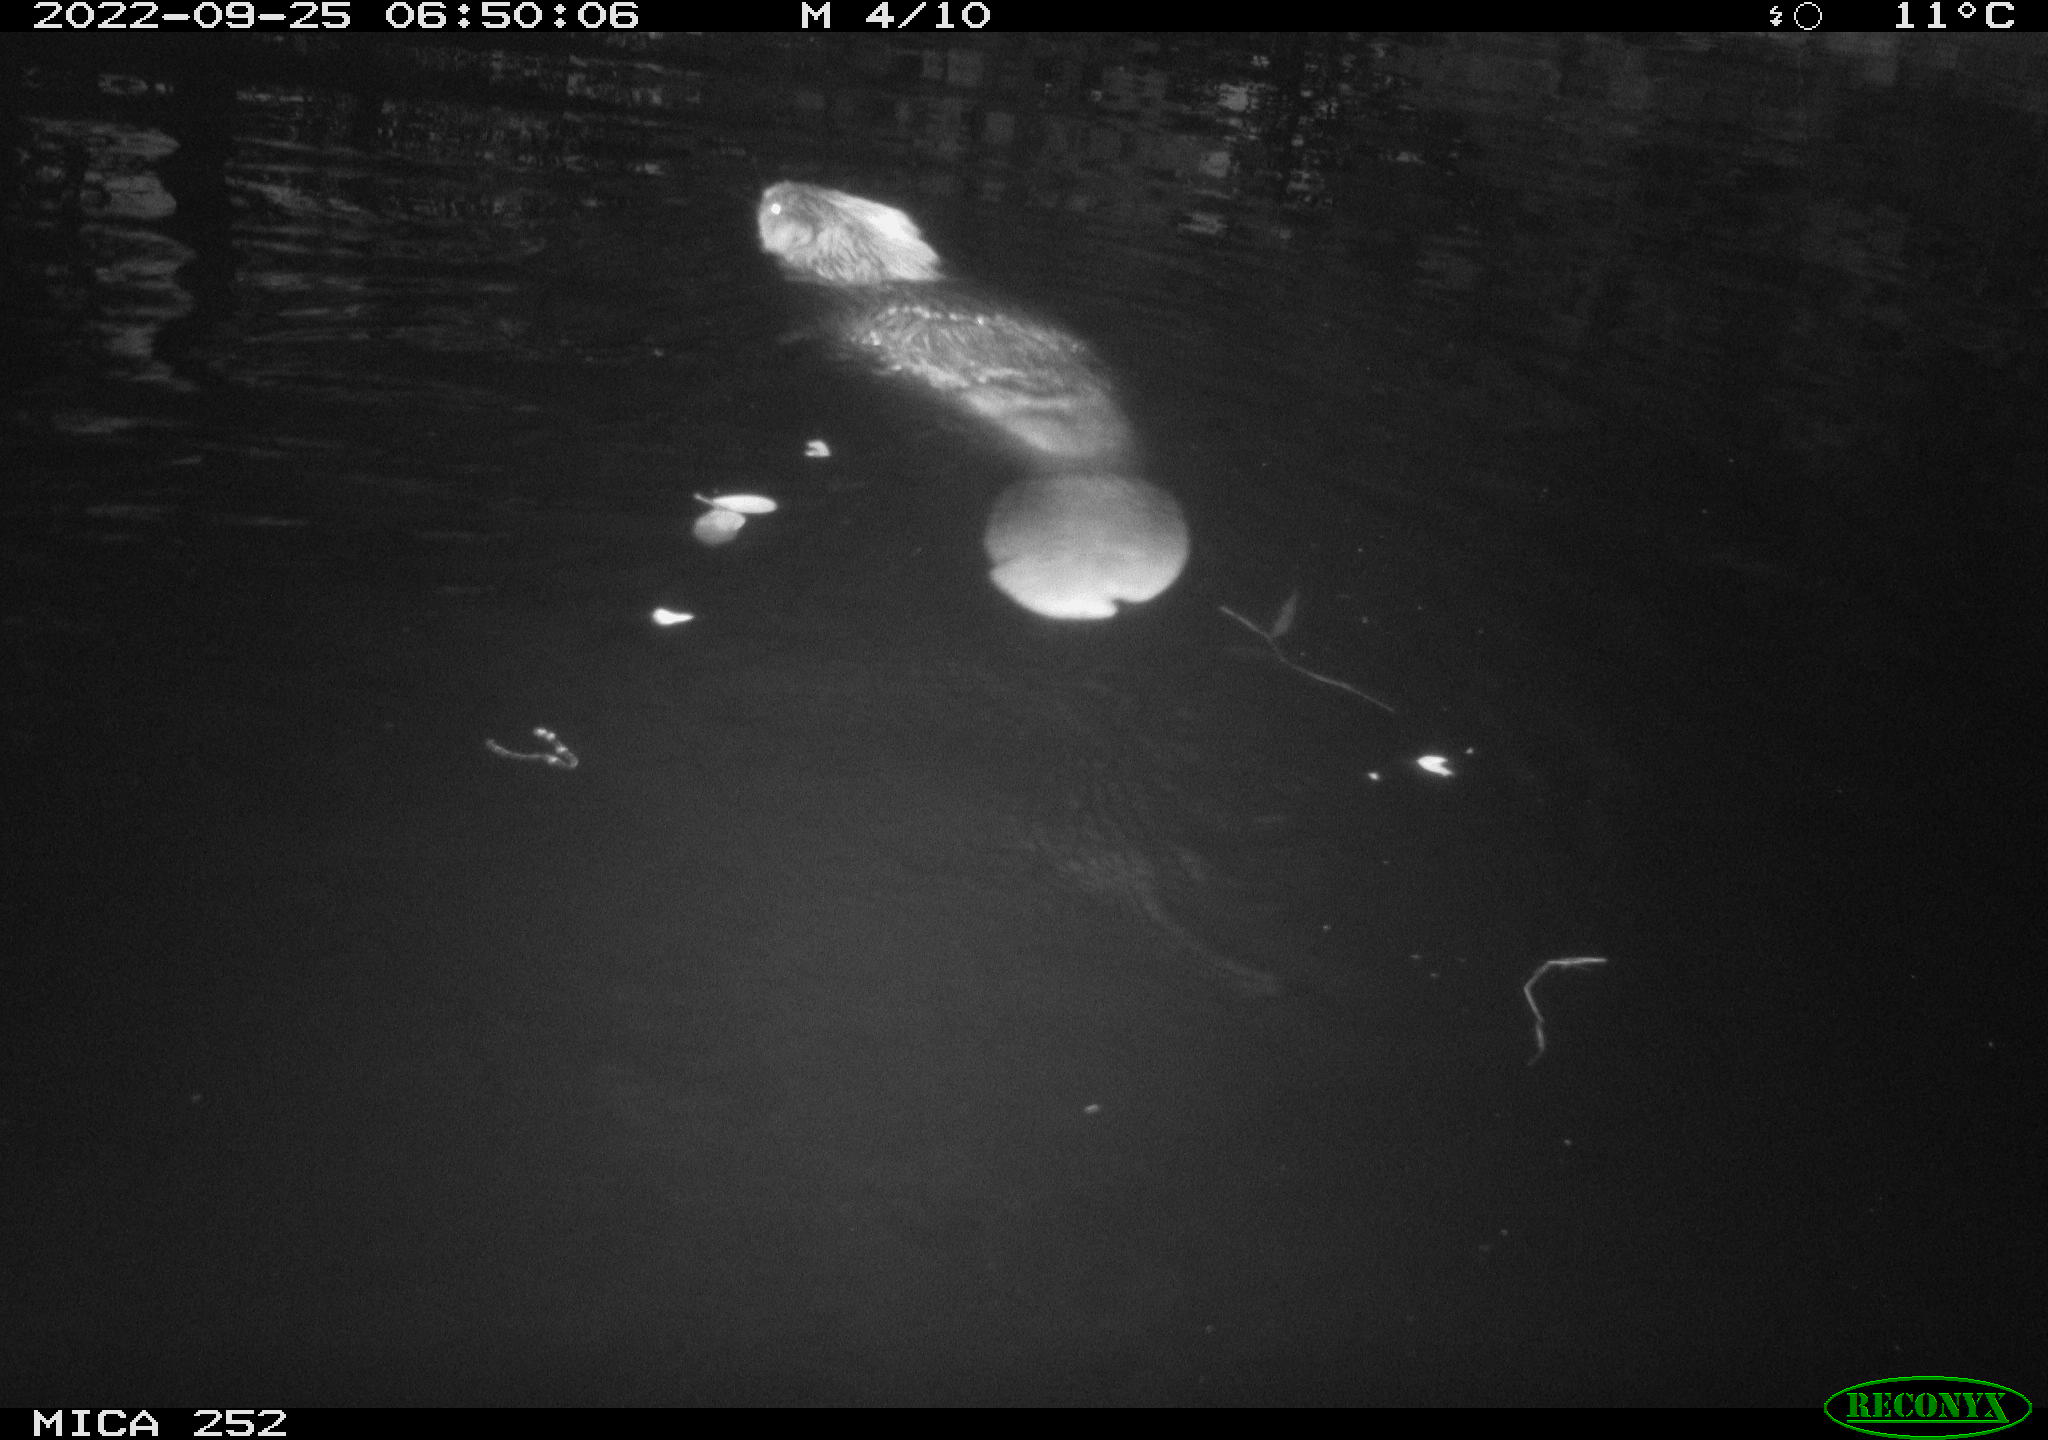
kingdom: Animalia
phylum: Chordata
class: Mammalia
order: Rodentia
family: Castoridae
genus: Castor
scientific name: Castor fiber
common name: Eurasian beaver
